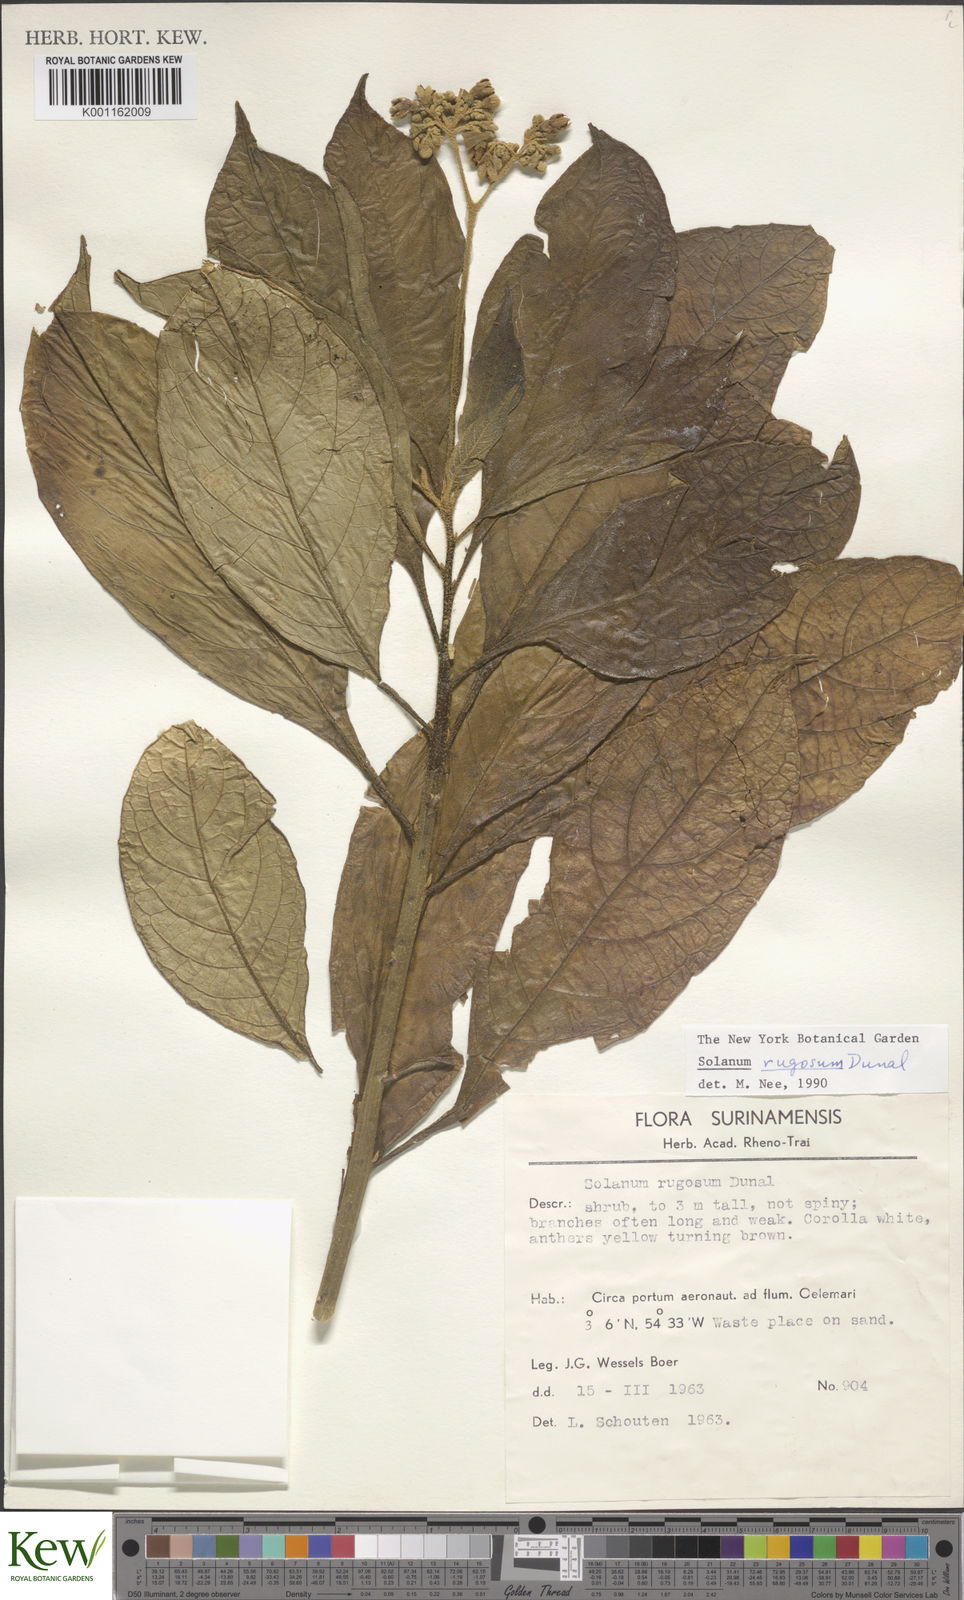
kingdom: Plantae
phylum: Tracheophyta
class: Magnoliopsida
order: Solanales
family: Solanaceae
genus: Solanum
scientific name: Solanum rugosum
